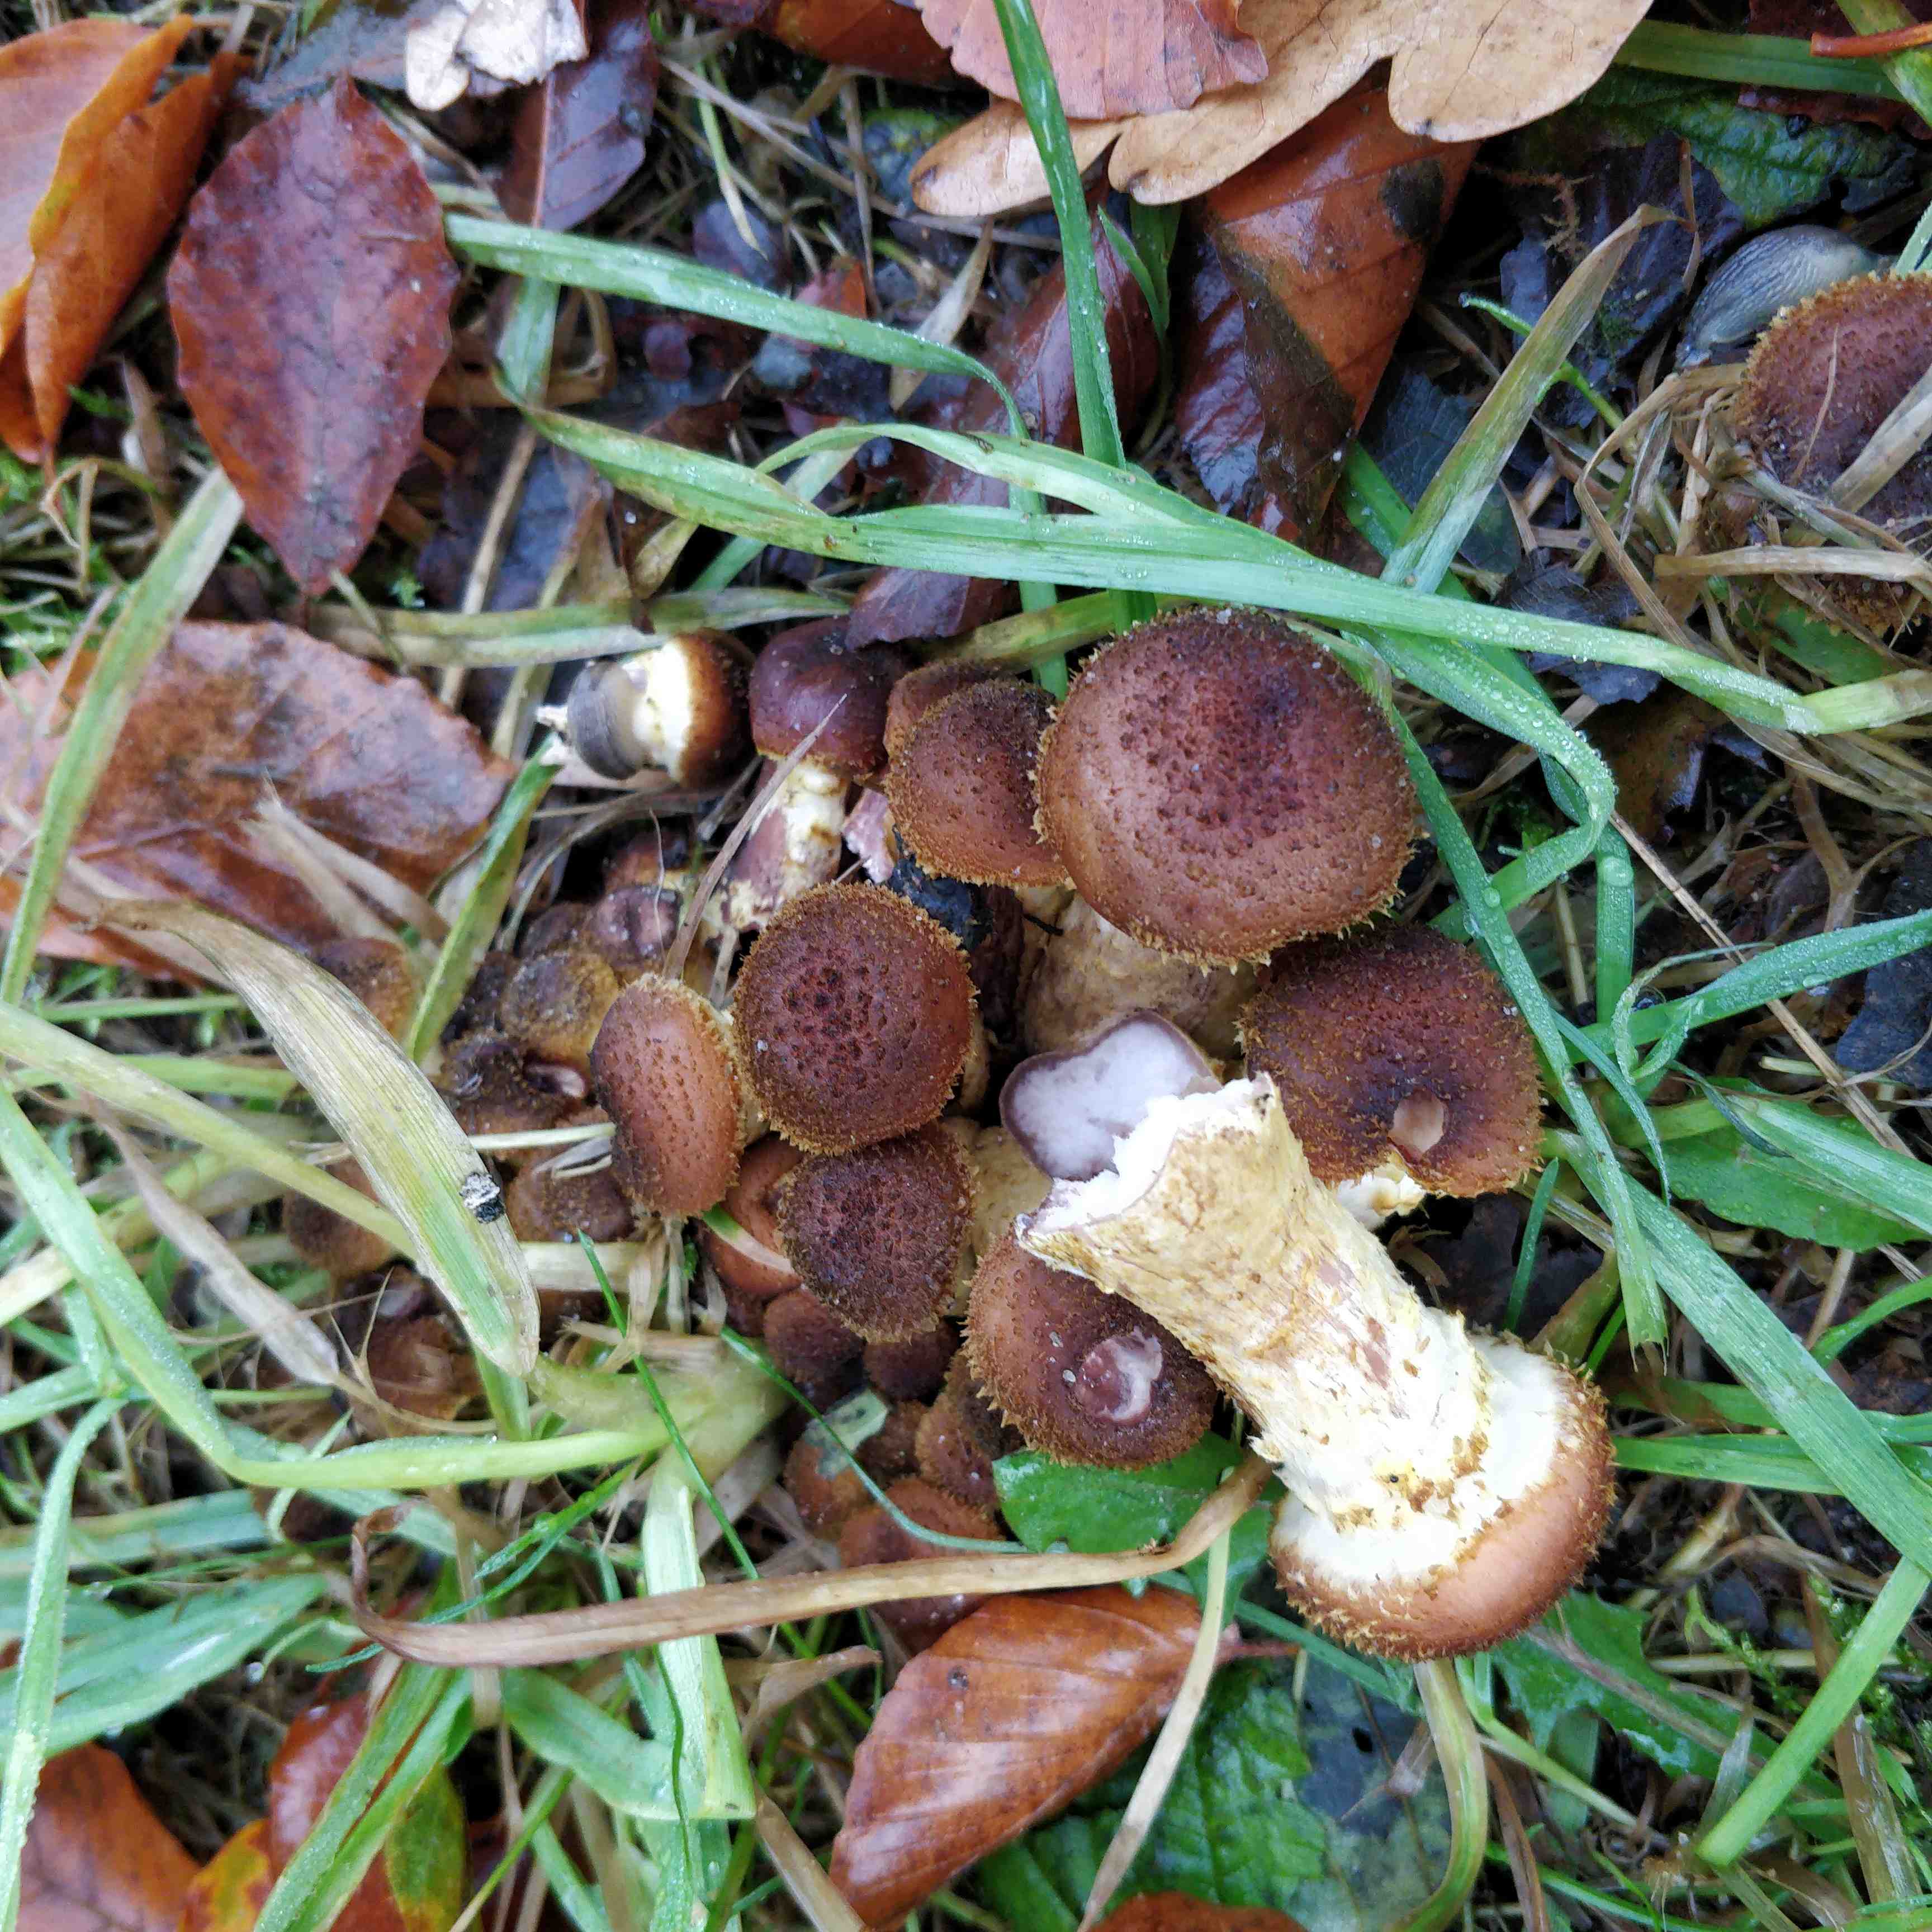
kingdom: Fungi
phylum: Basidiomycota
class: Agaricomycetes
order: Agaricales
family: Physalacriaceae
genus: Armillaria
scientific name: Armillaria
